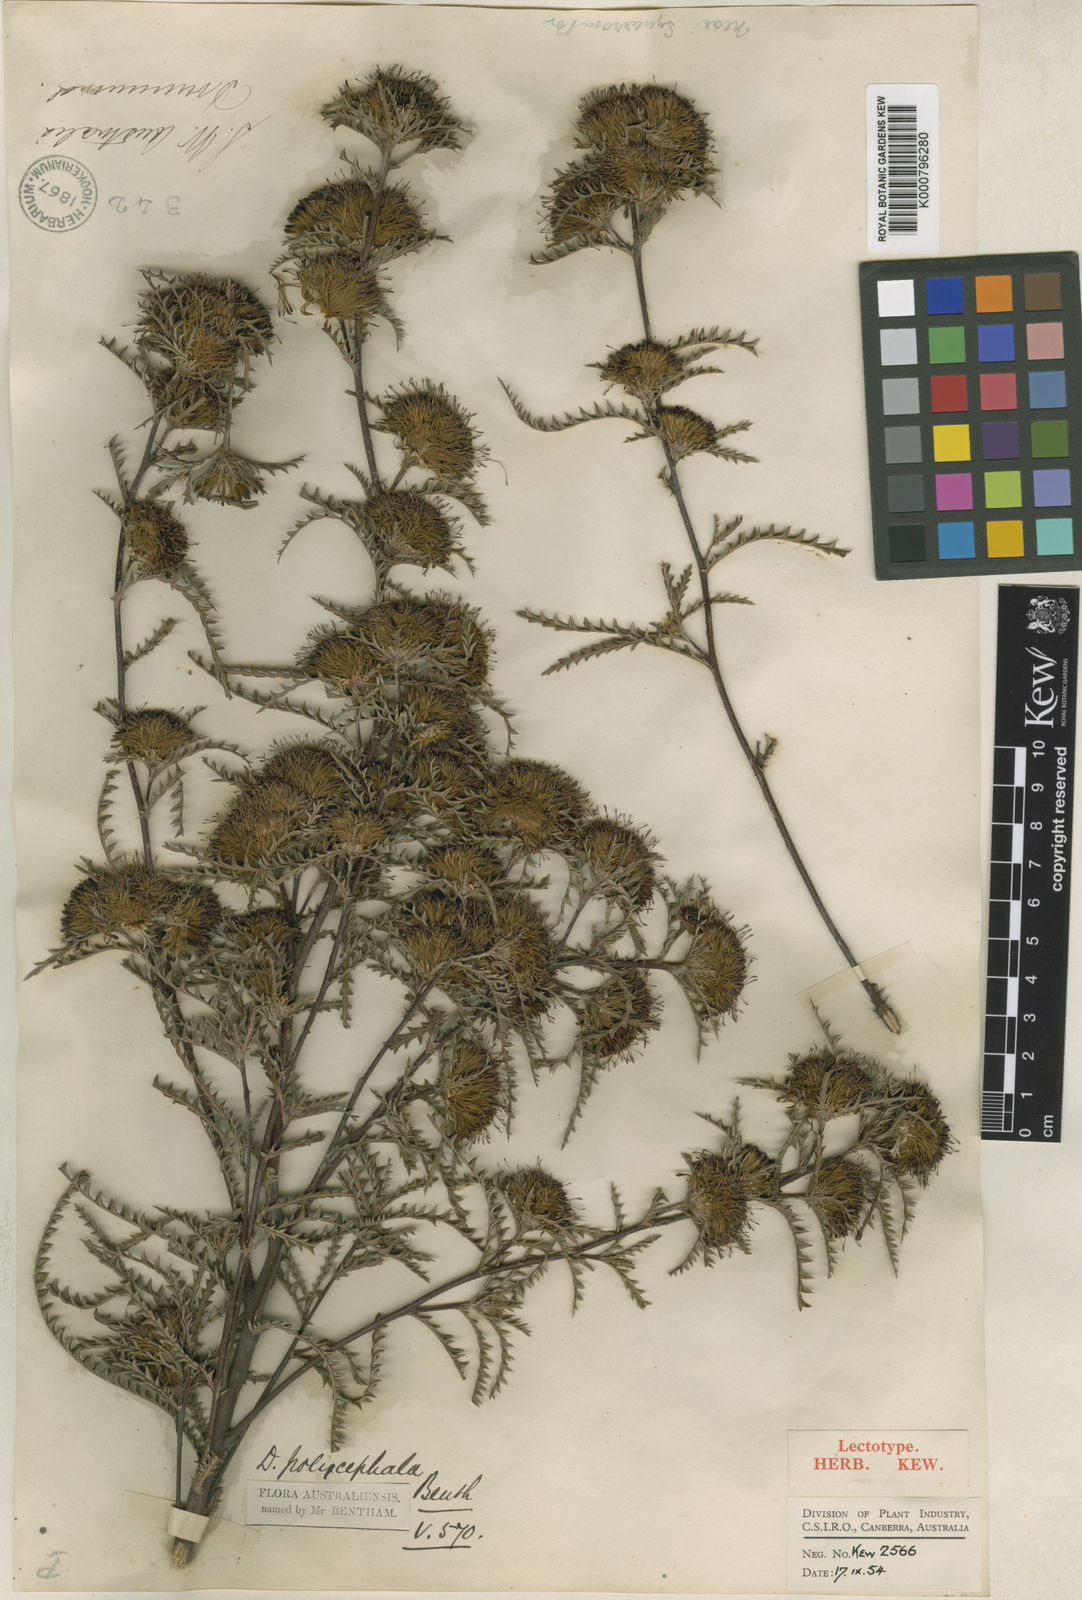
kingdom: Plantae
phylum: Tracheophyta
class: Magnoliopsida
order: Proteales
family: Proteaceae
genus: Banksia
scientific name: Banksia polycephala
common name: Many-head dryandra
